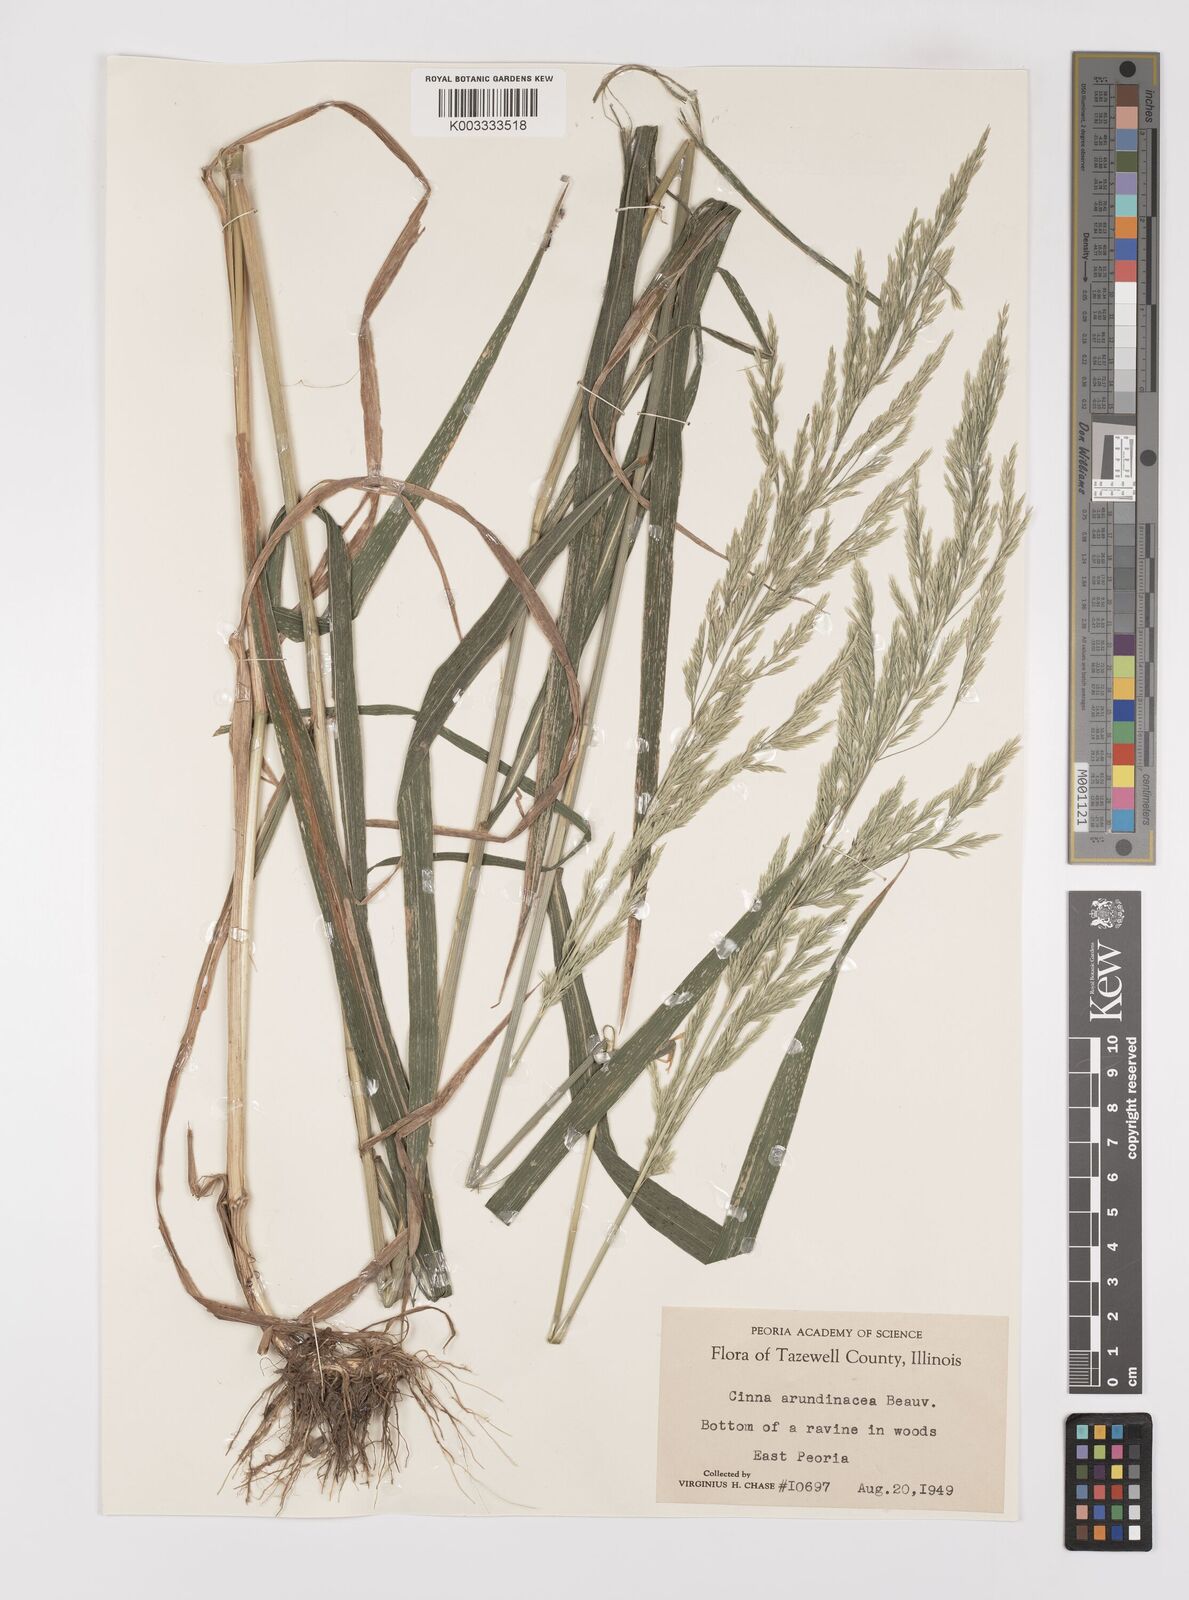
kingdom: Plantae
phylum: Tracheophyta
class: Liliopsida
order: Poales
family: Poaceae
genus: Cinna
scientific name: Cinna
